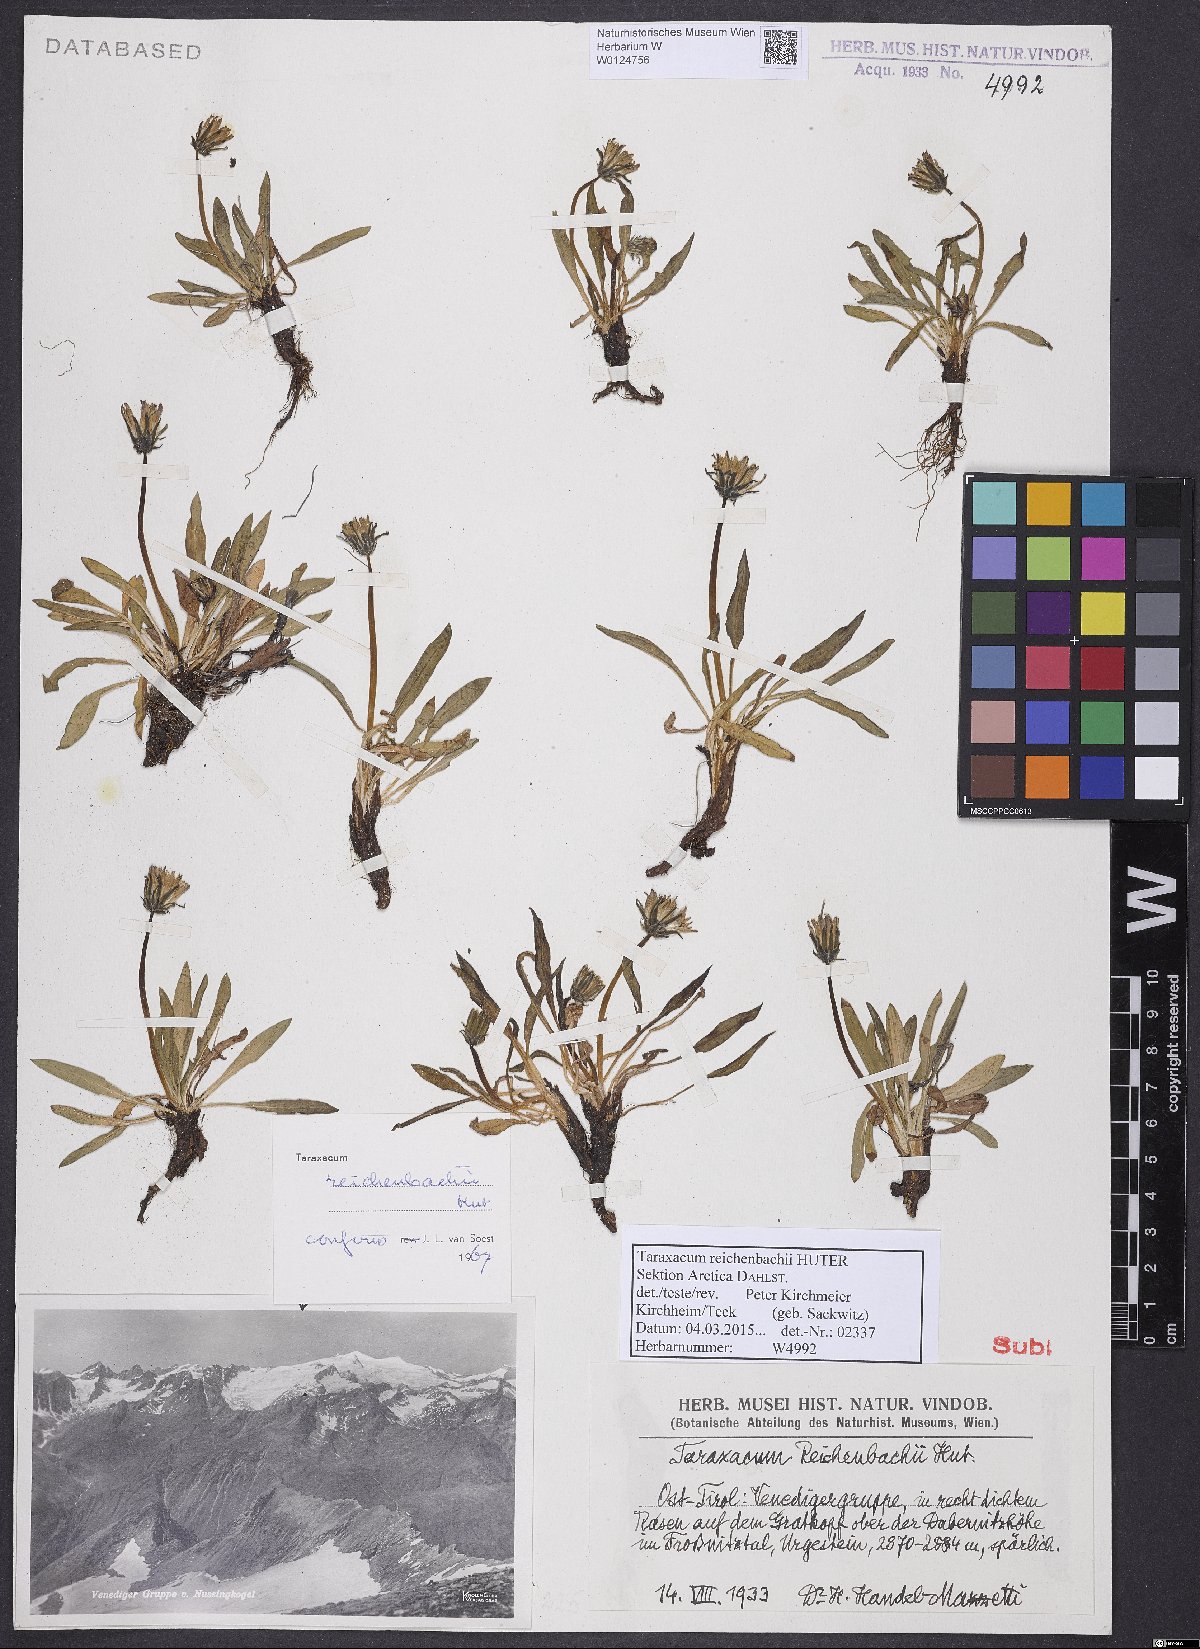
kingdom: Plantae
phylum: Tracheophyta
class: Magnoliopsida
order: Asterales
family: Asteraceae
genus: Taraxacum
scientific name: Taraxacum reichenbachii
